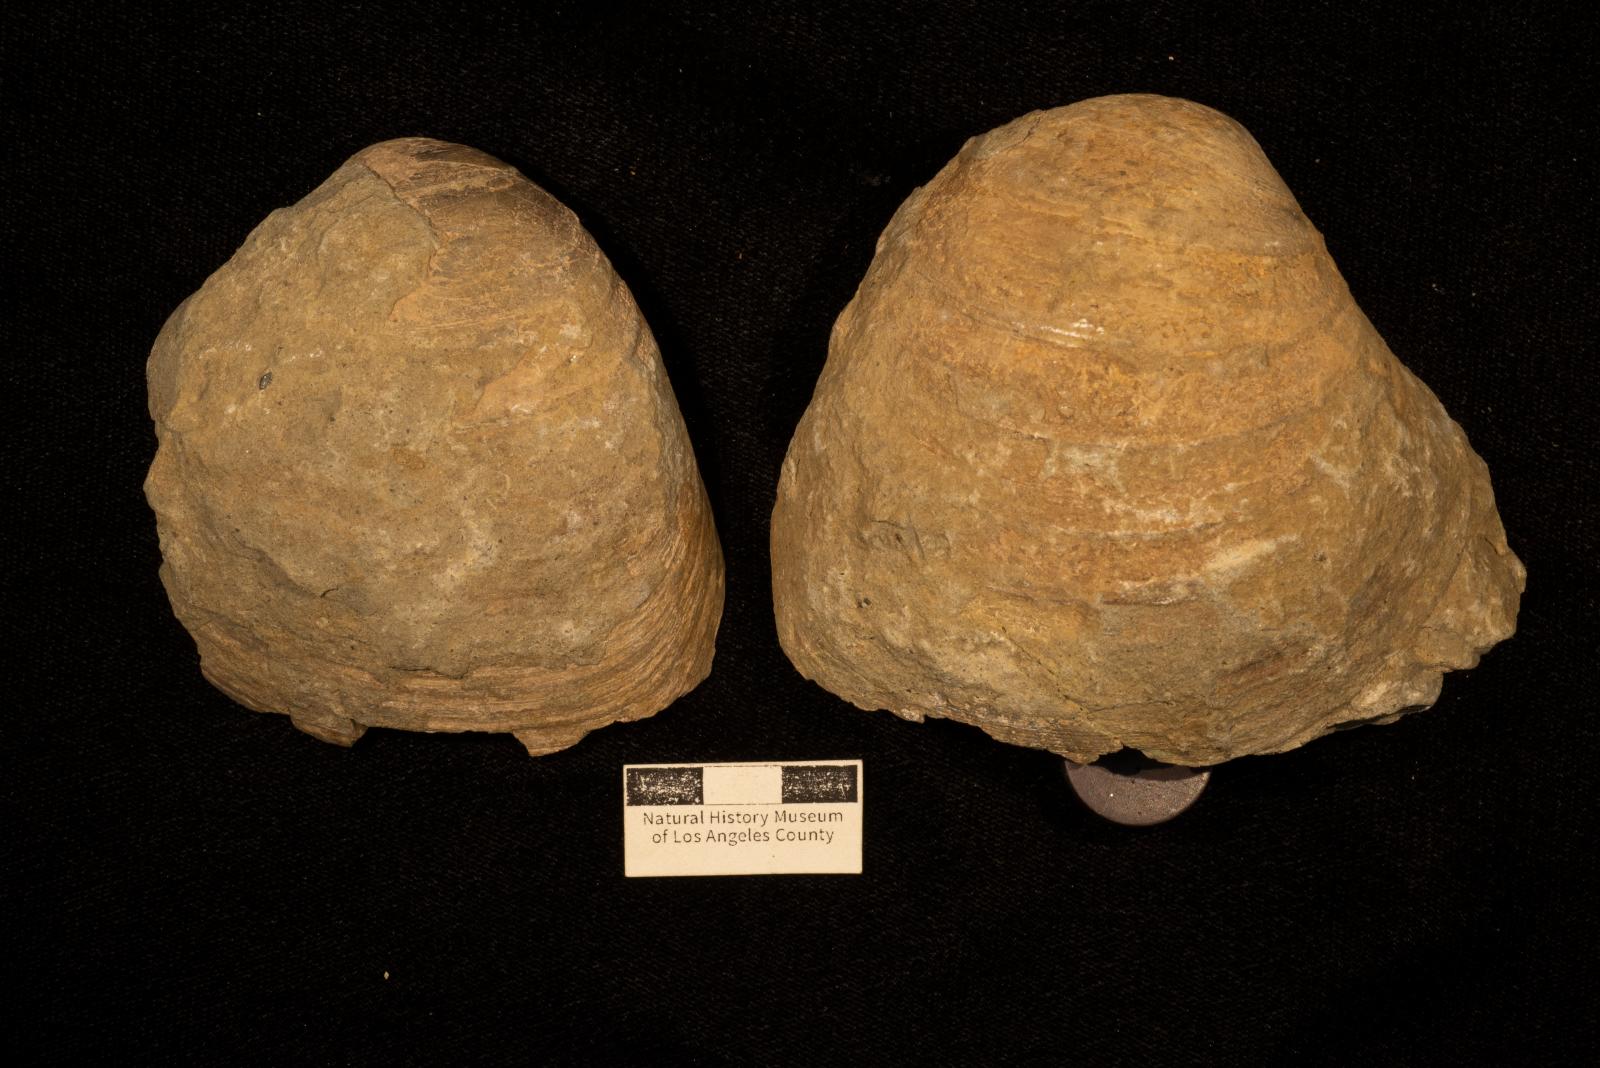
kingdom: Animalia
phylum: Mollusca
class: Bivalvia
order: Venerida
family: Veneridae
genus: Calva
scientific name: Calva crassa
